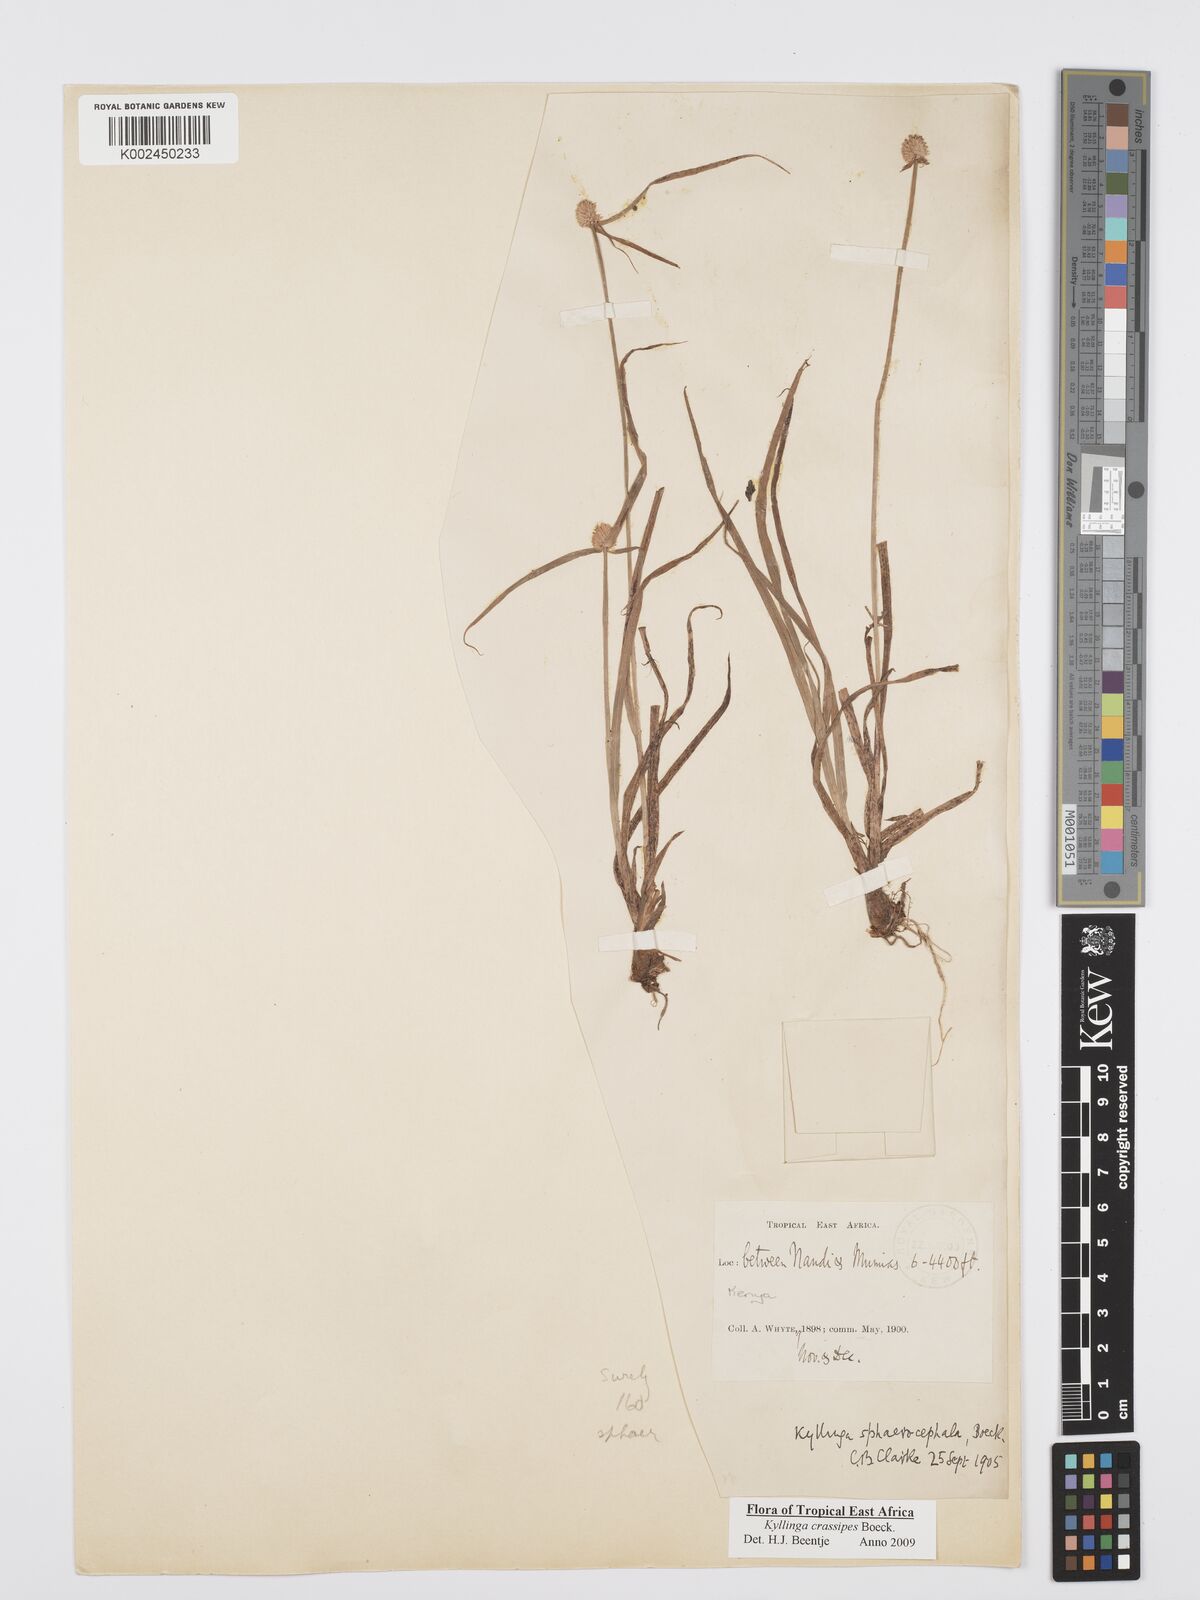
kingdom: Plantae
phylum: Tracheophyta
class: Liliopsida
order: Poales
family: Cyperaceae
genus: Cyperus
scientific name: Cyperus crassipes
